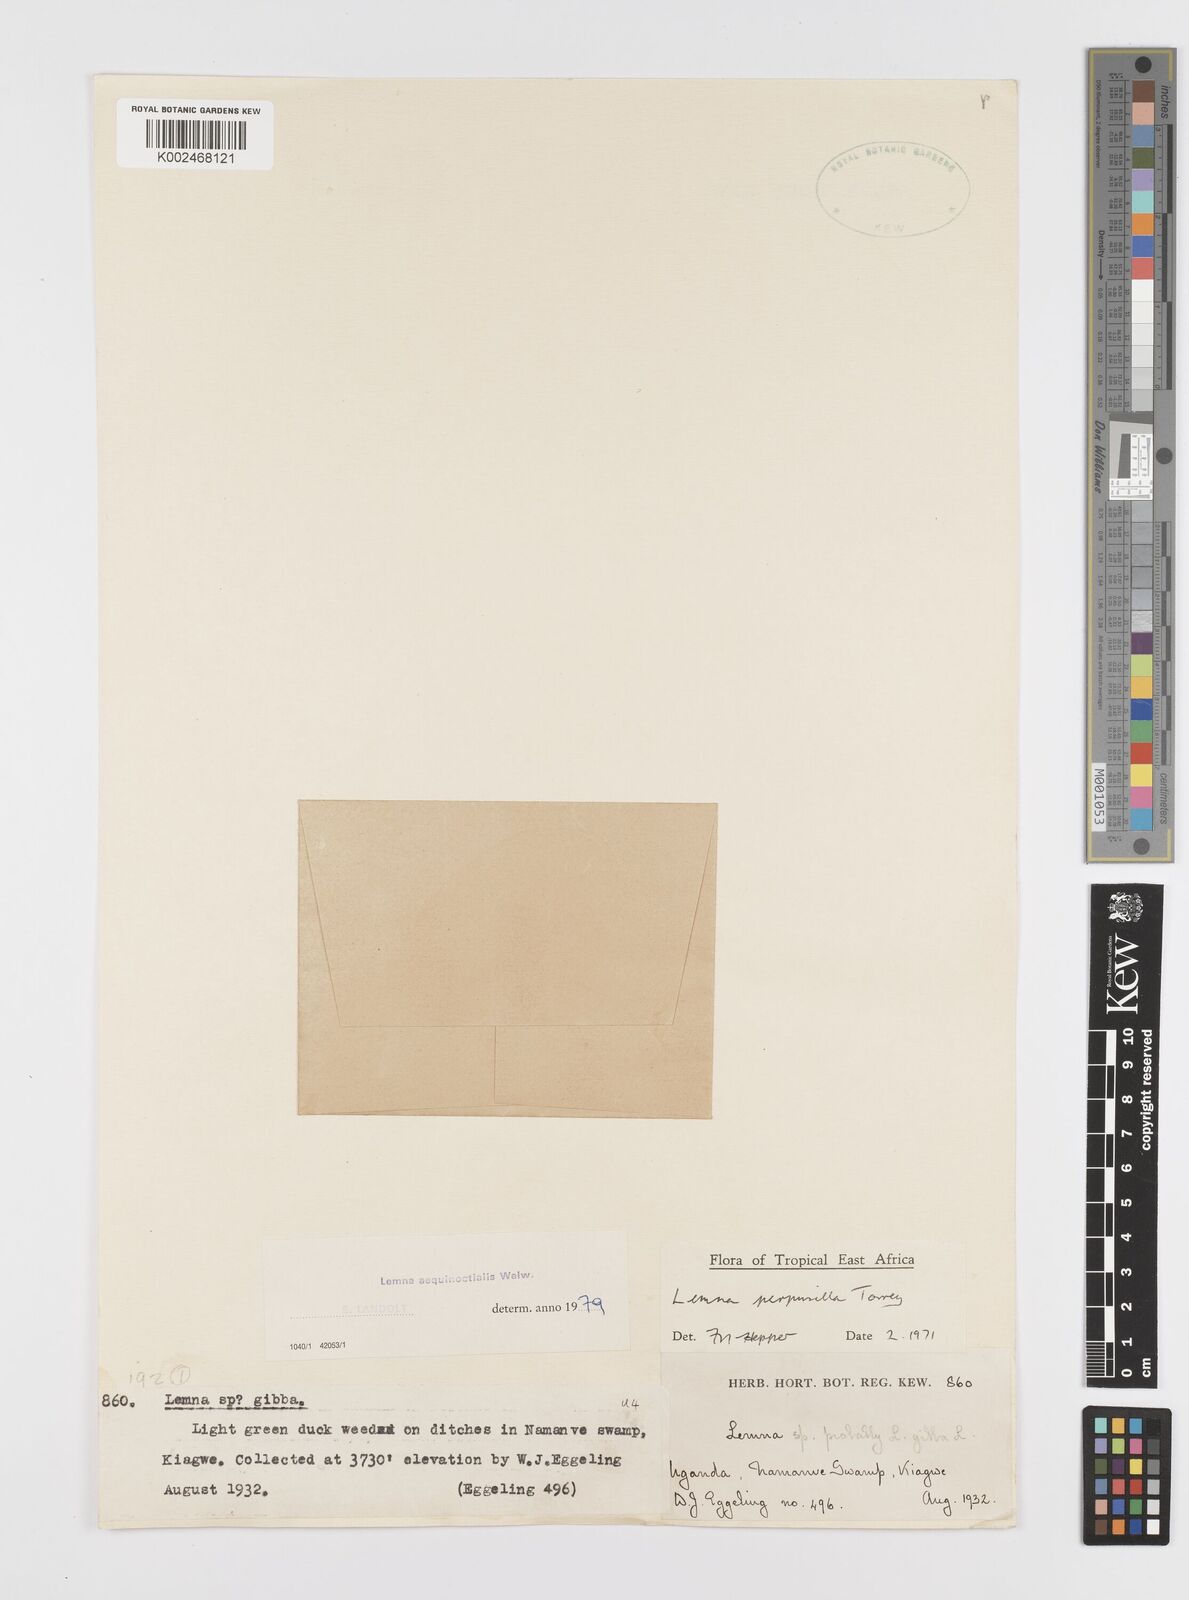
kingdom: Plantae
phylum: Tracheophyta
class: Liliopsida
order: Alismatales
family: Araceae
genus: Lemna
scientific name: Lemna aequinoctialis
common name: Duckweed
